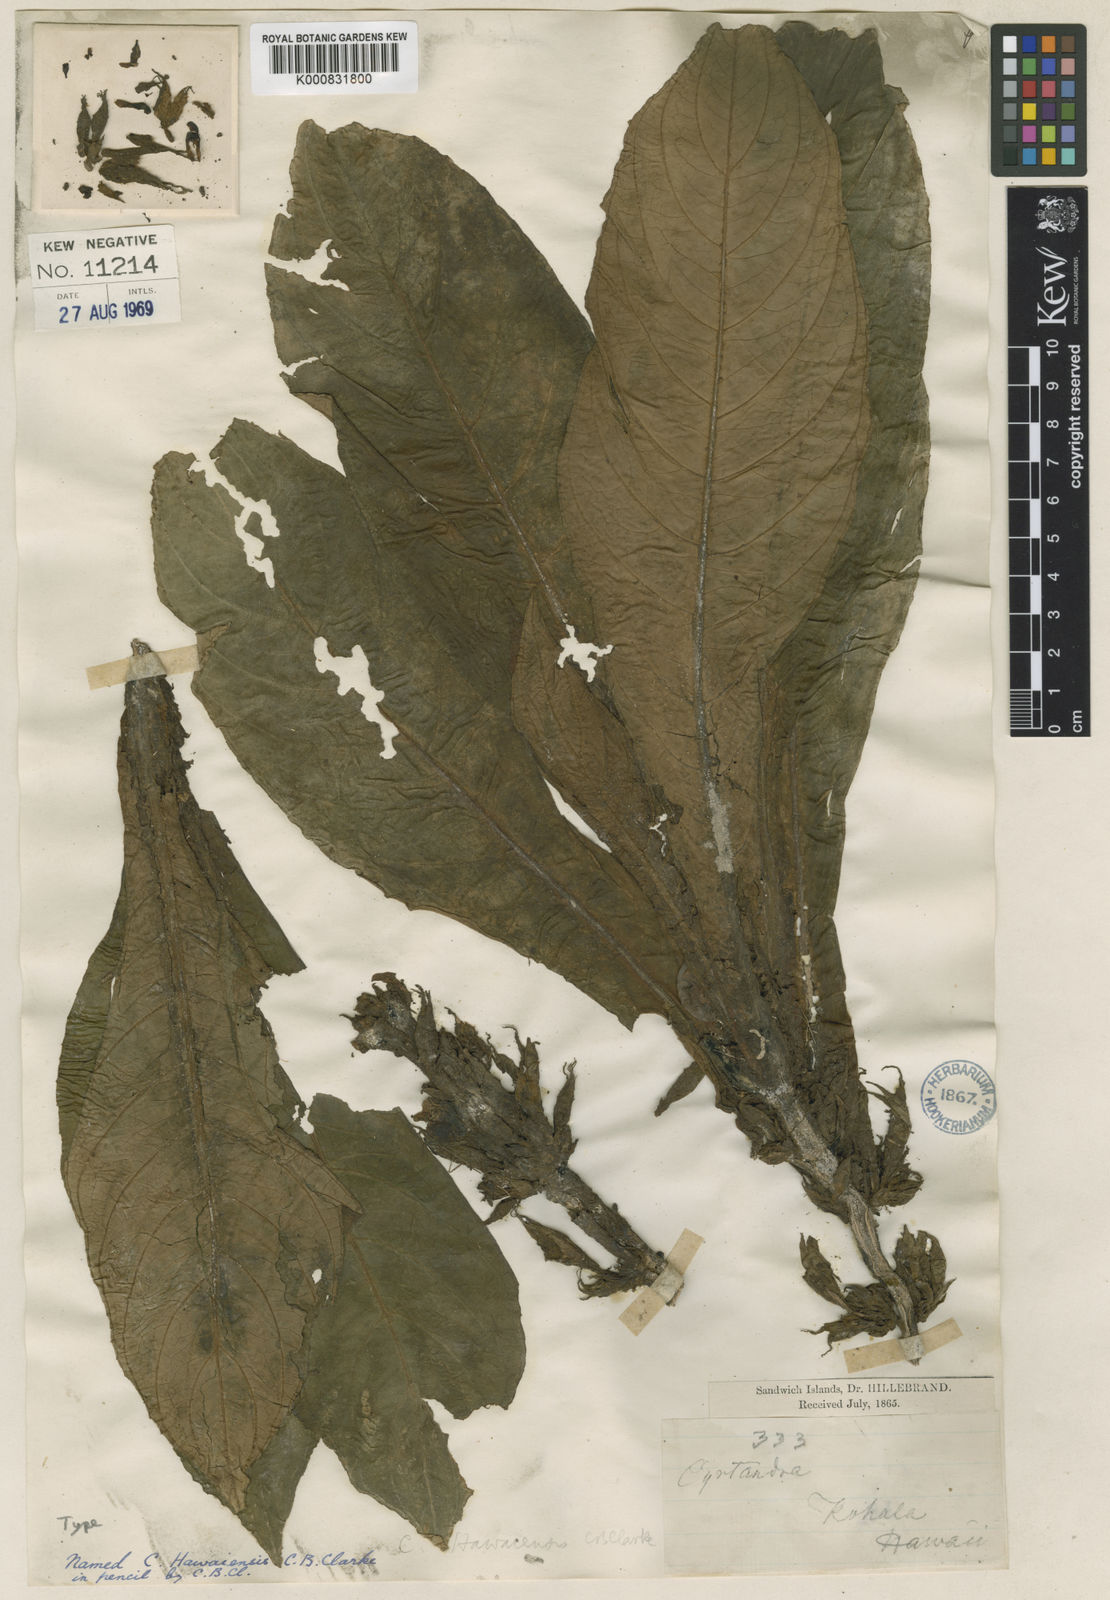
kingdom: Plantae
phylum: Tracheophyta
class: Magnoliopsida
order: Lamiales
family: Gesneriaceae
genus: Cyrtandra
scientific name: Cyrtandra hawaiensis
